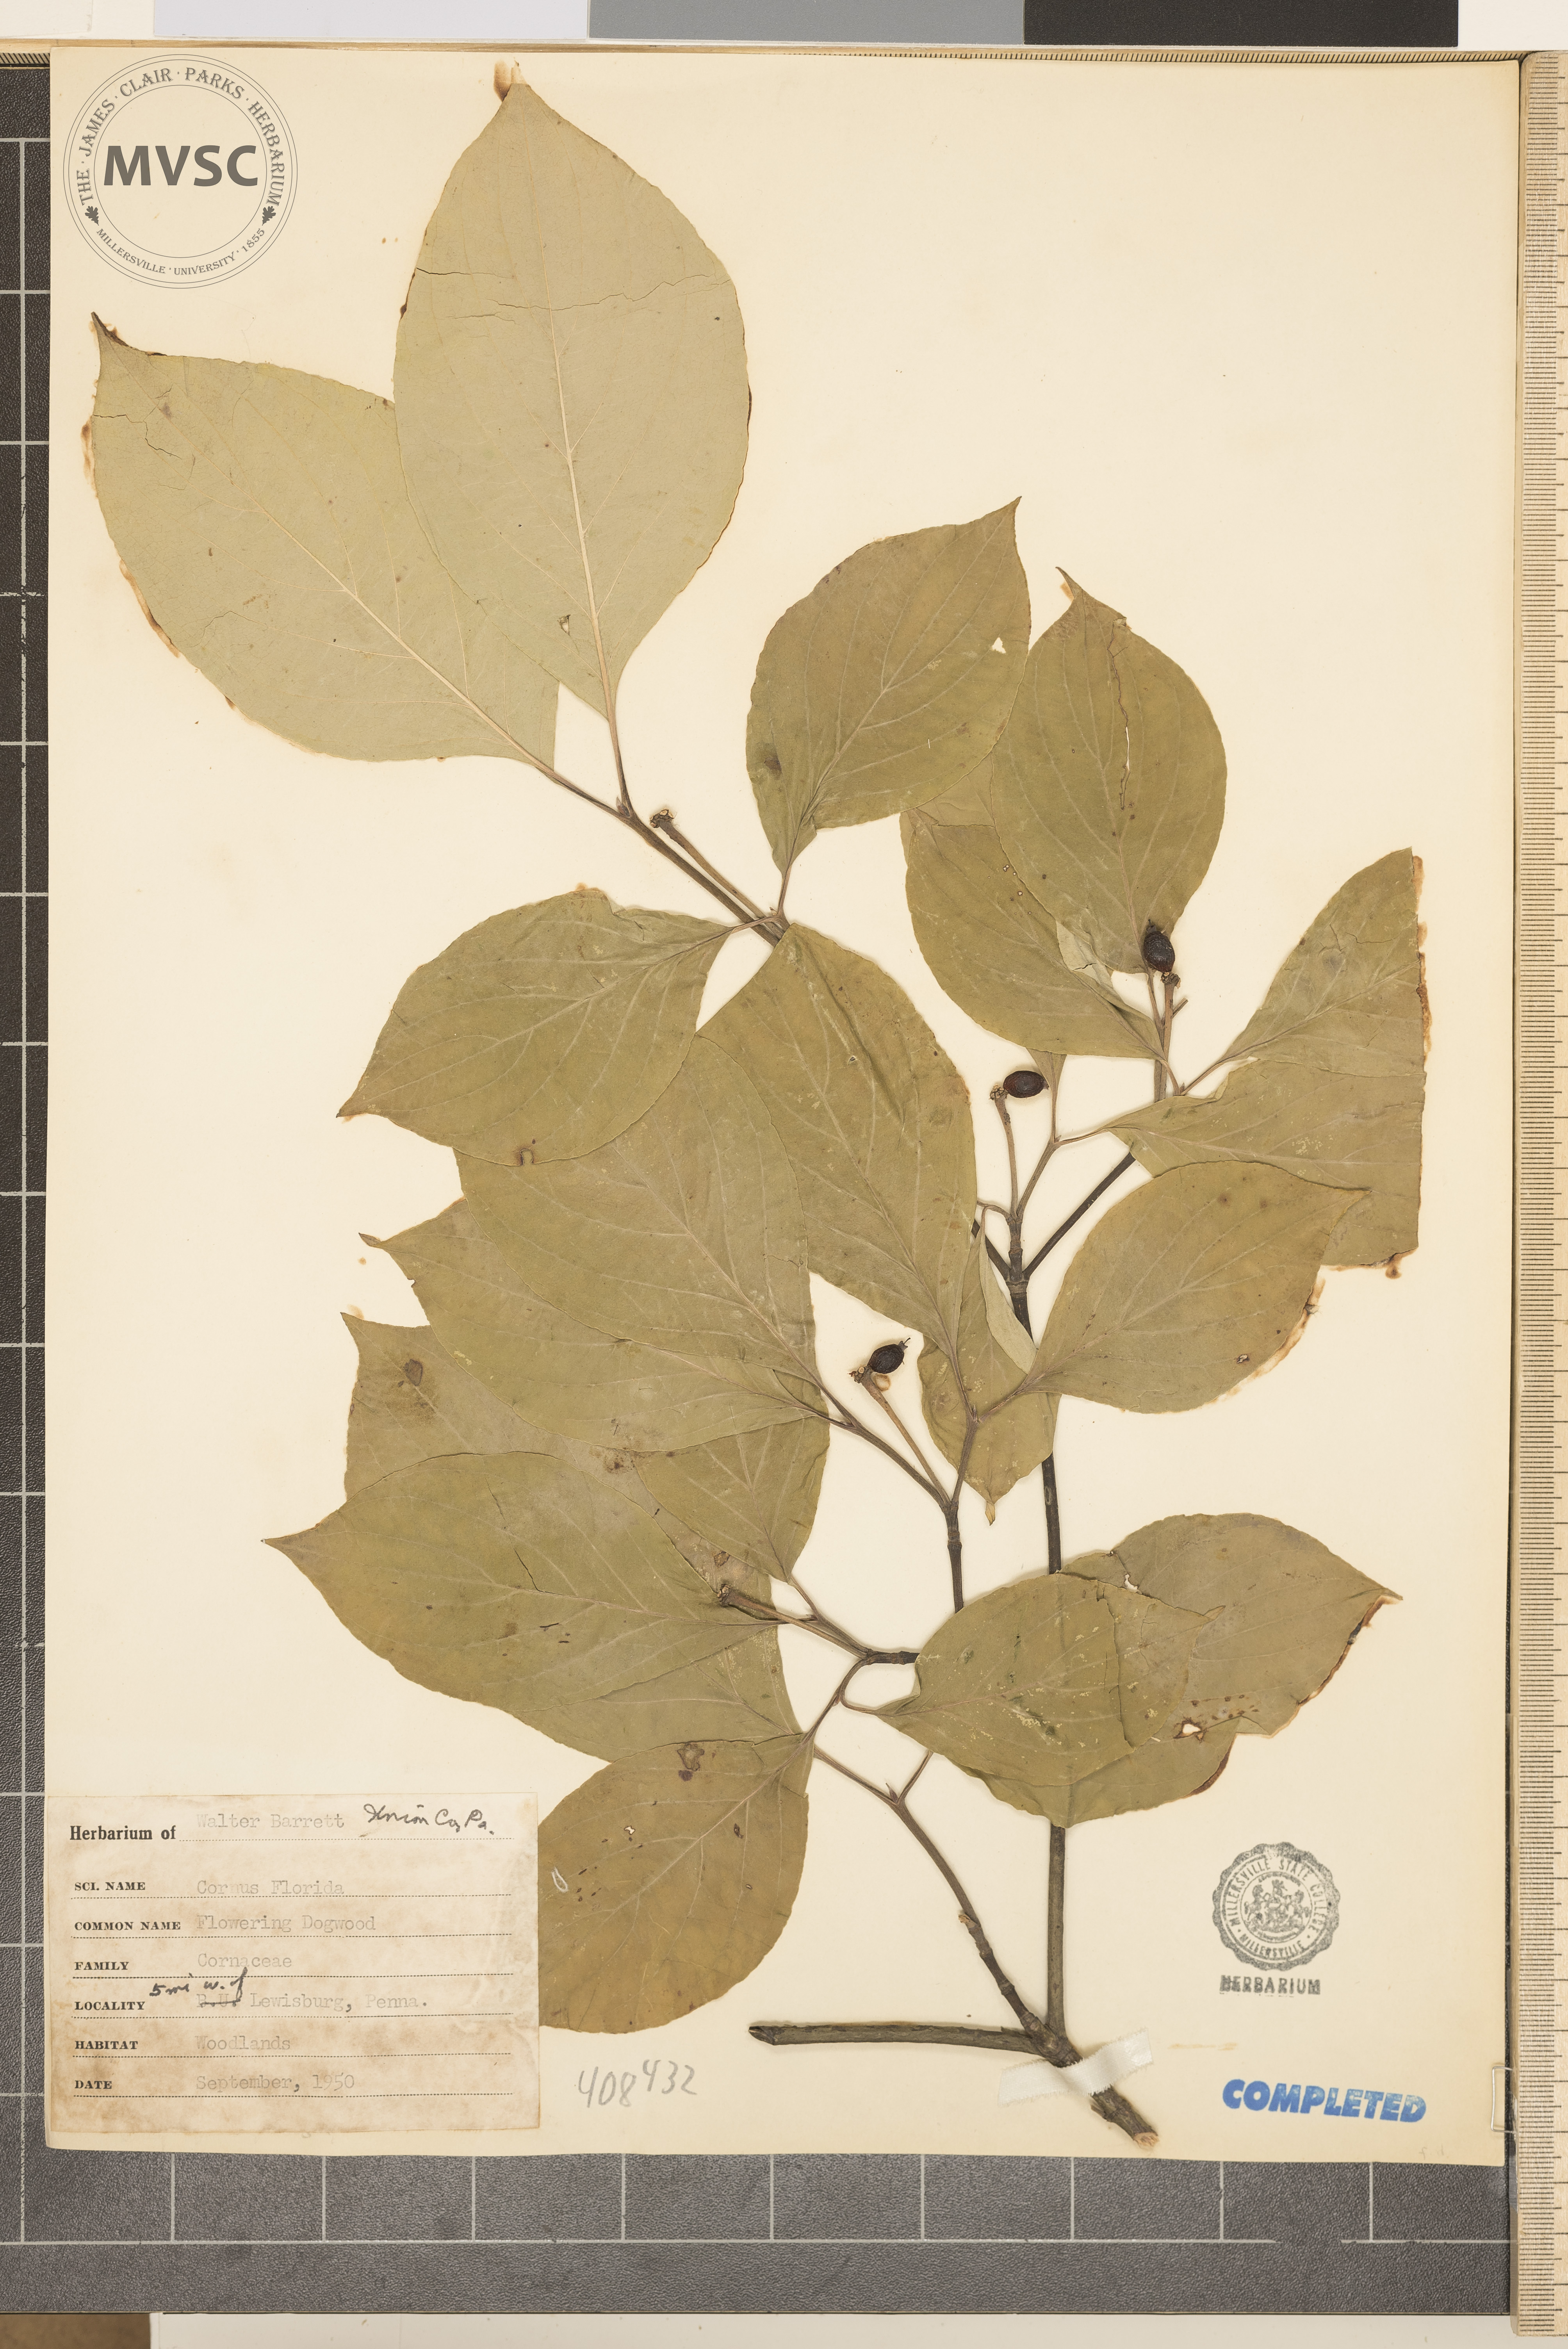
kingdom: Plantae
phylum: Tracheophyta
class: Magnoliopsida
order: Cornales
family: Cornaceae
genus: Cornus
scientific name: Cornus florida
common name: flowering dogwood
